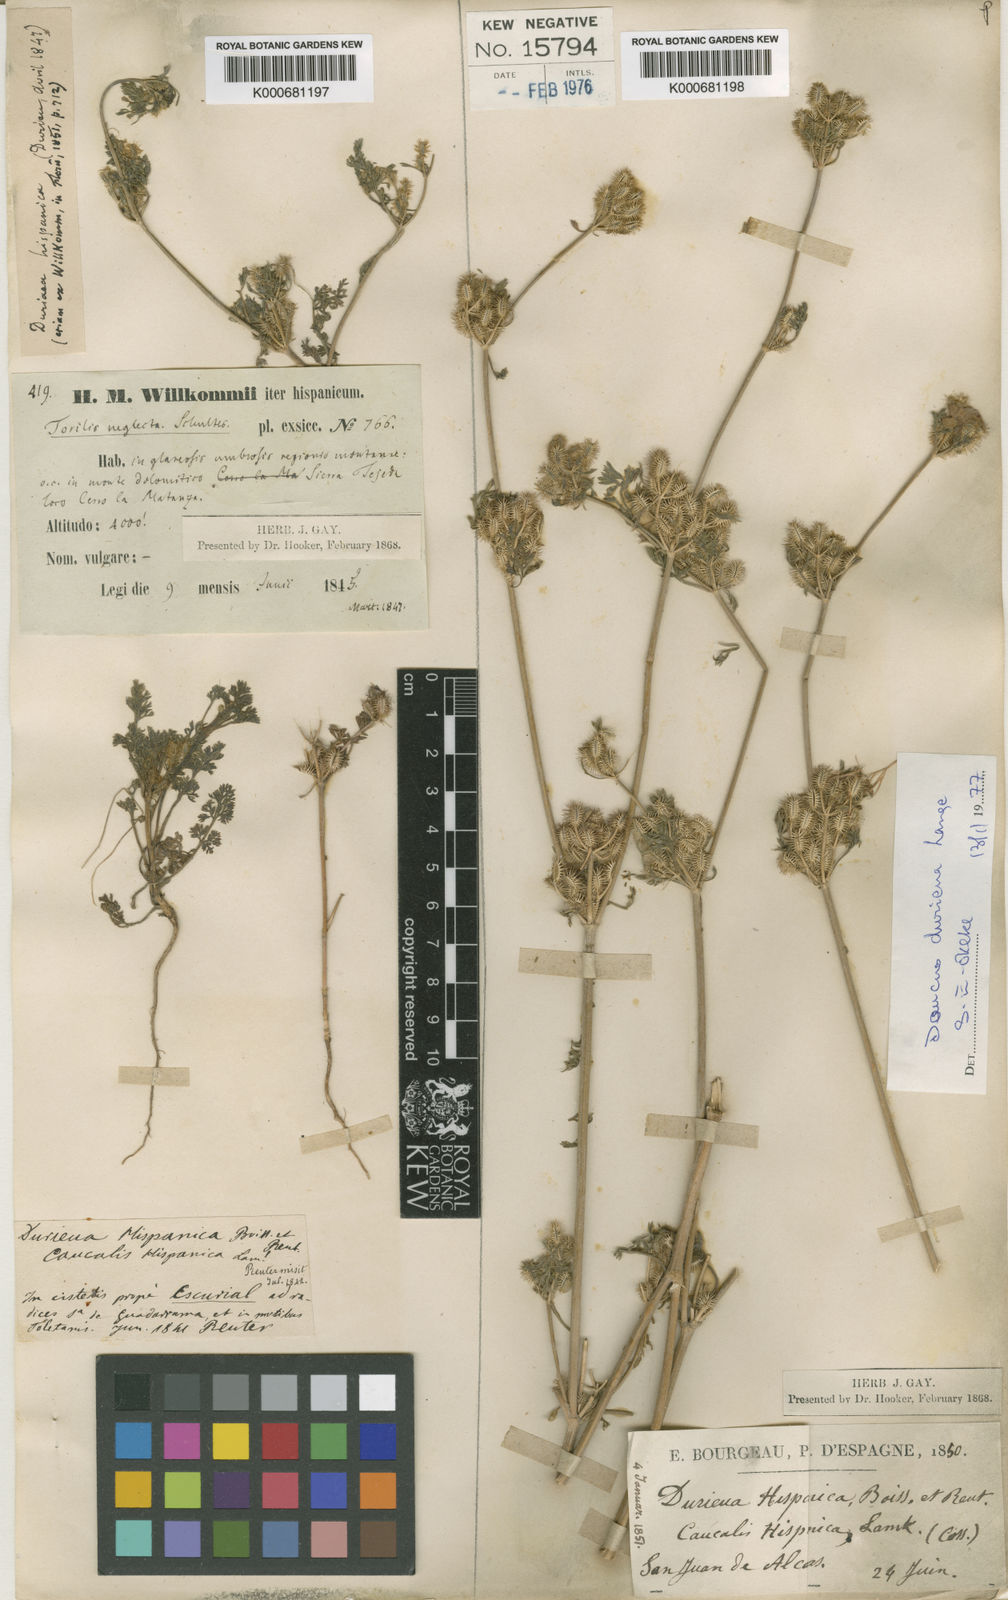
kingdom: Plantae
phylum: Tracheophyta
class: Magnoliopsida
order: Apiales
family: Apiaceae
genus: Daucus
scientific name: Daucus
